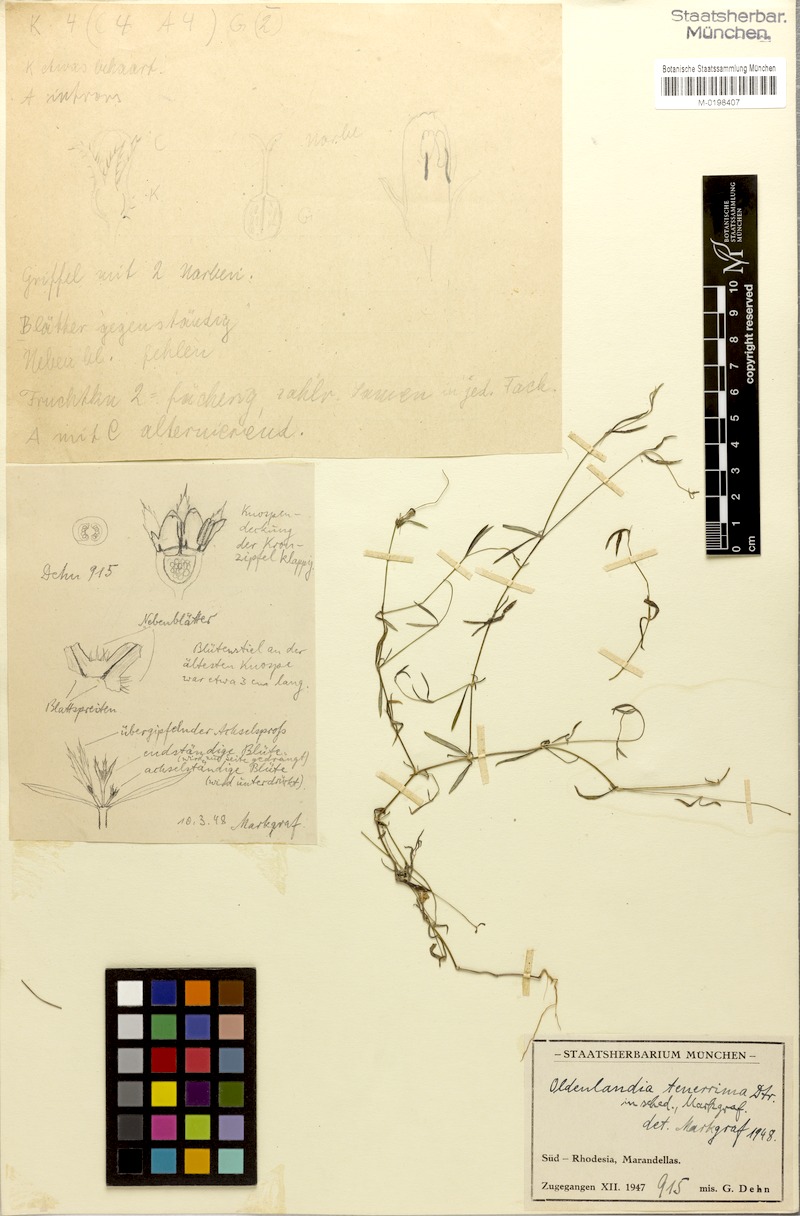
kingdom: Plantae
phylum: Tracheophyta
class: Magnoliopsida
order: Gentianales
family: Rubiaceae
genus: Oldenlandia
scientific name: Oldenlandia herbacea
